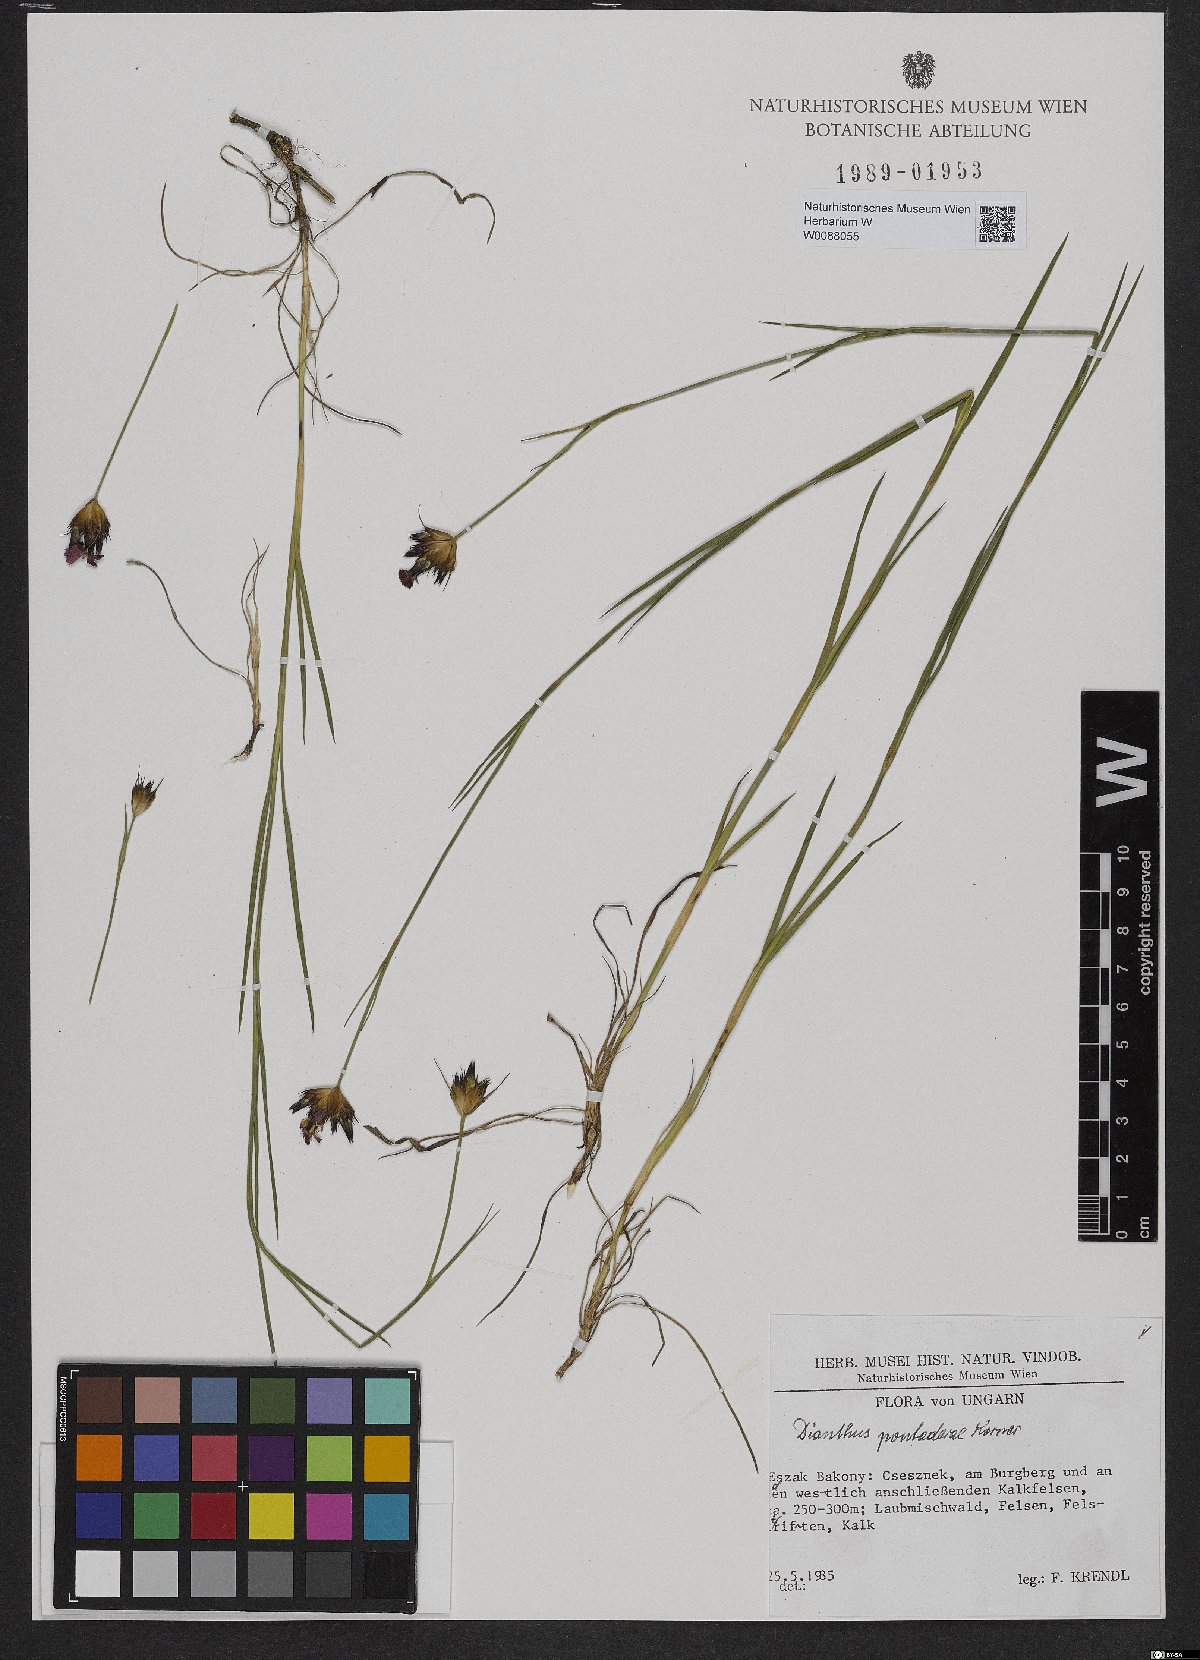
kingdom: Plantae
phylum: Tracheophyta
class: Magnoliopsida
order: Caryophyllales
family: Caryophyllaceae
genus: Dianthus
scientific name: Dianthus pontederae
